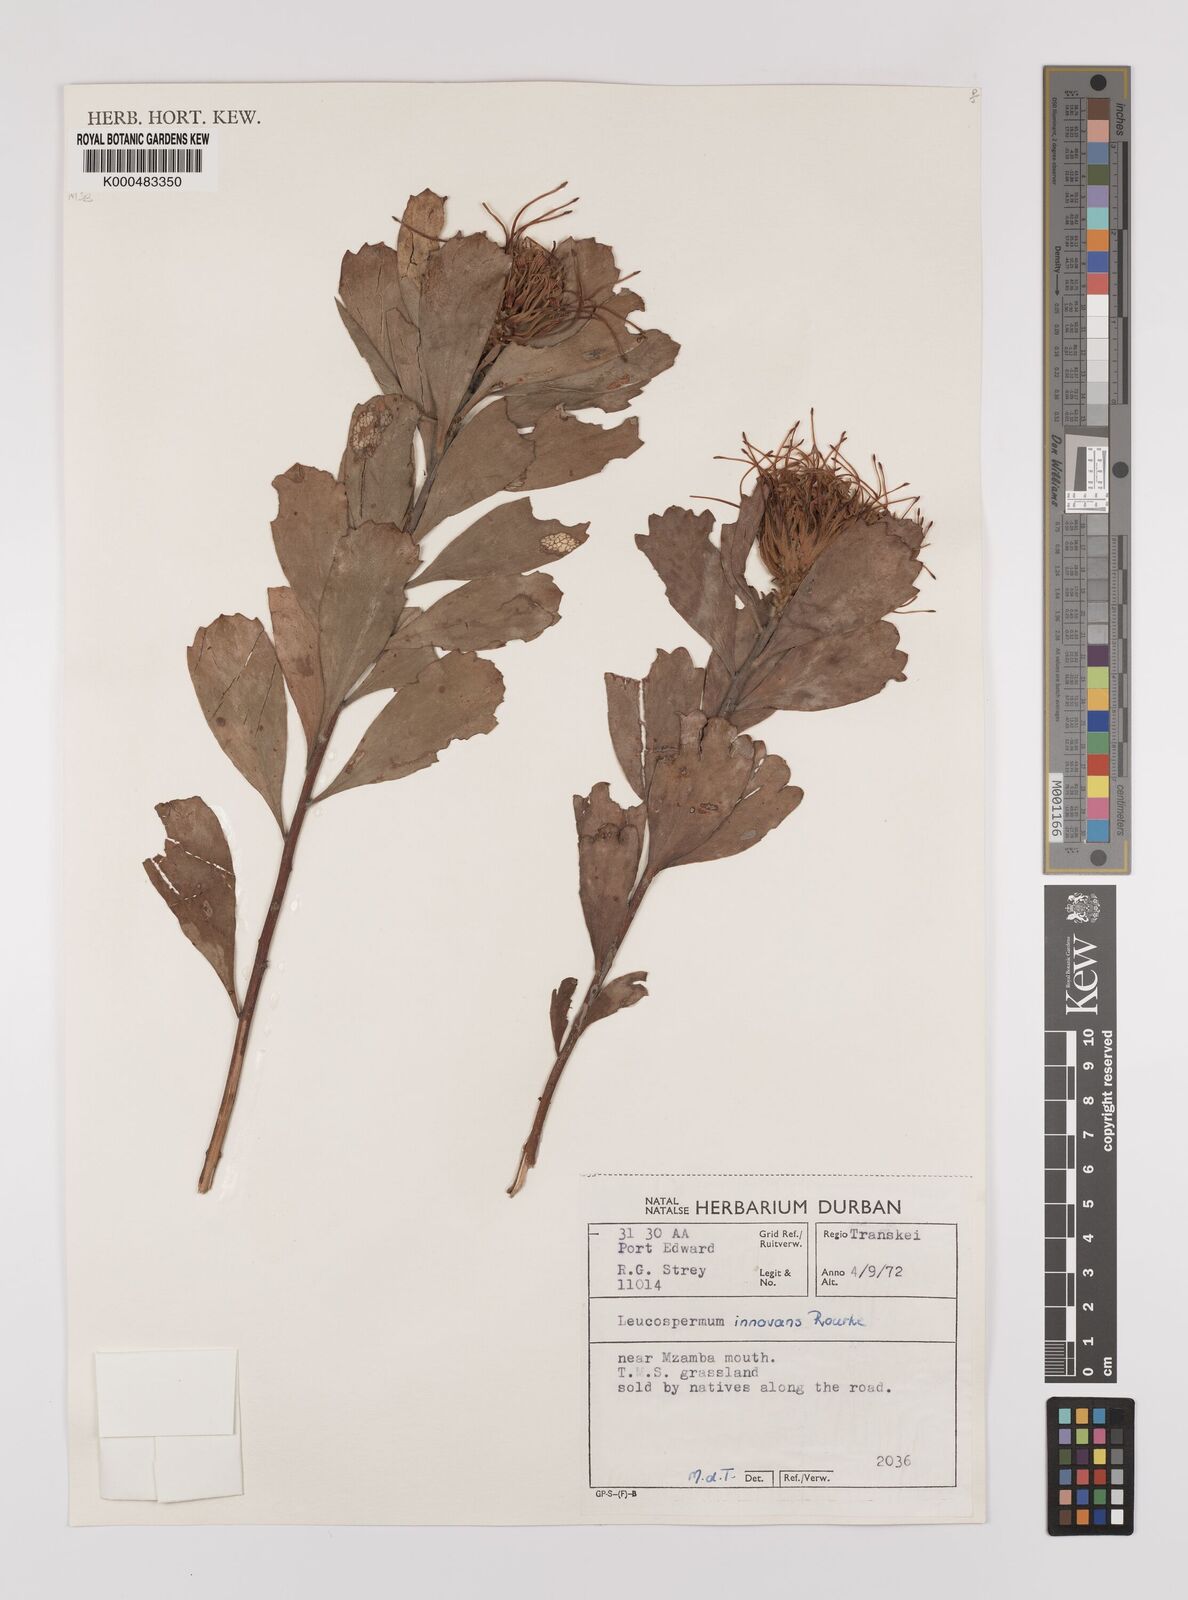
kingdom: Plantae
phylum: Tracheophyta
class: Magnoliopsida
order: Proteales
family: Proteaceae
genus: Leucospermum
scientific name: Leucospermum innovans
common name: Pondoland pincushion
